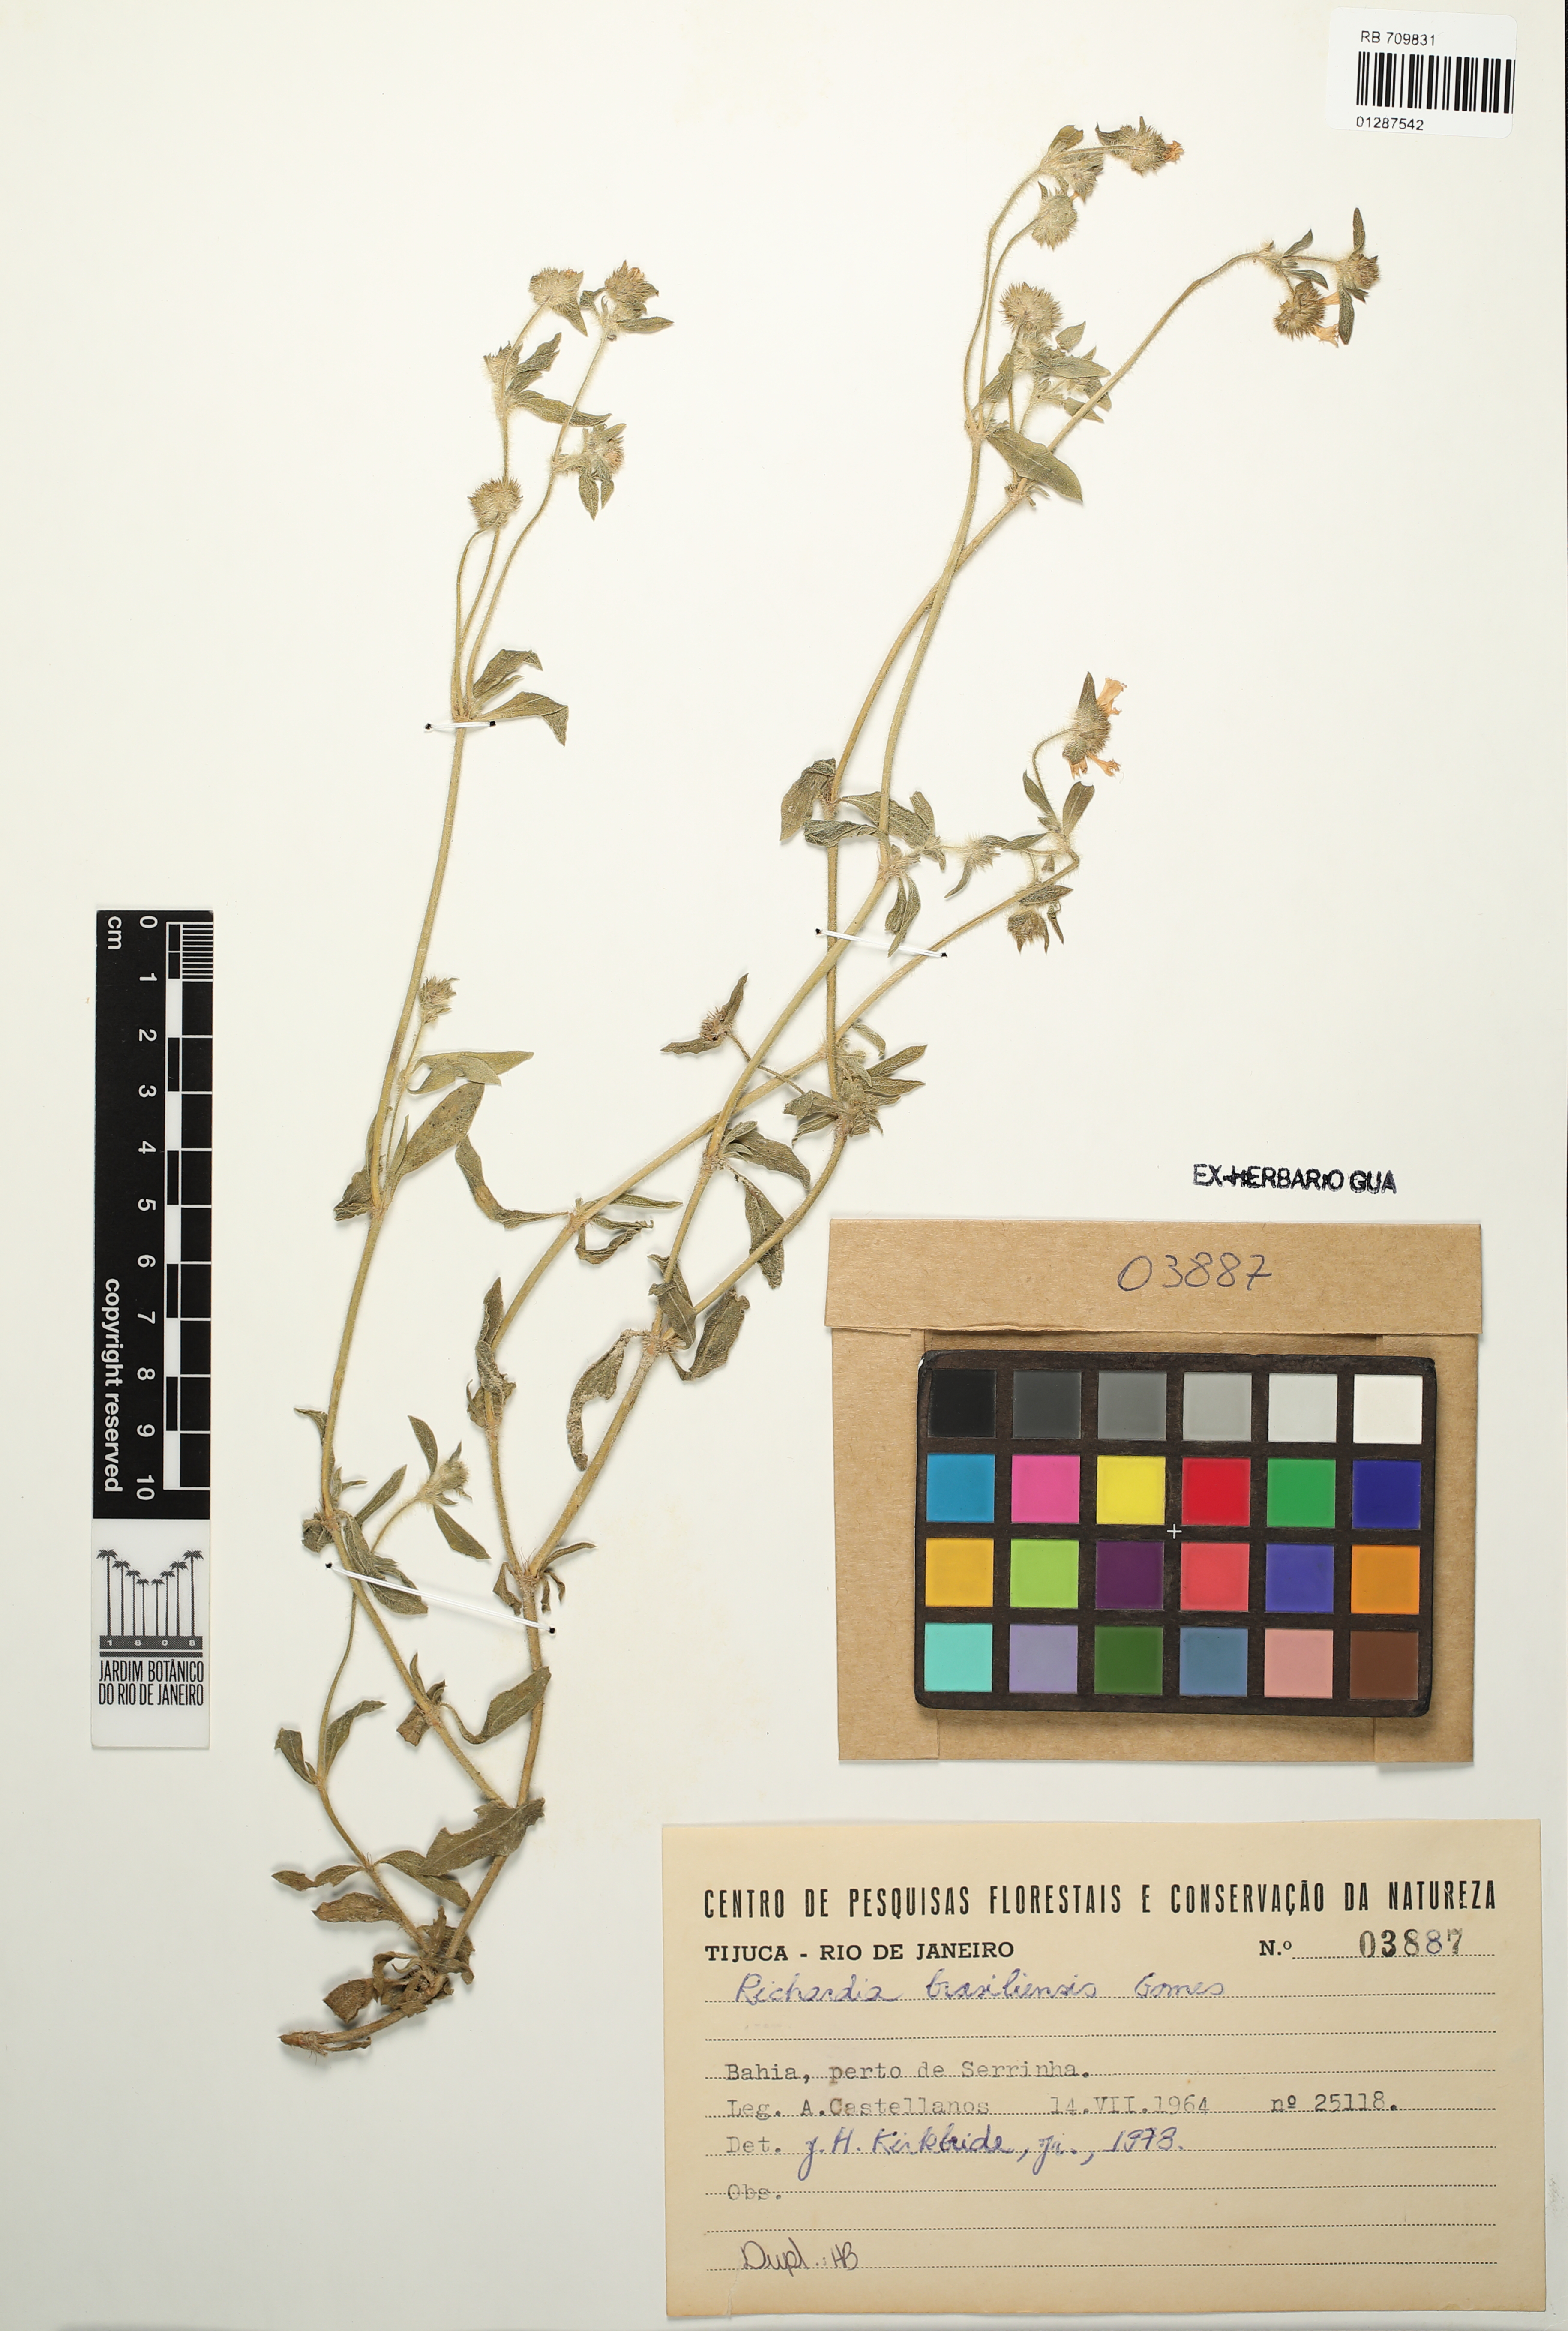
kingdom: Plantae
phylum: Tracheophyta
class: Magnoliopsida
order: Gentianales
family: Rubiaceae
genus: Richardia
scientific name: Richardia brasiliensis
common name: Tropical mexican clover
